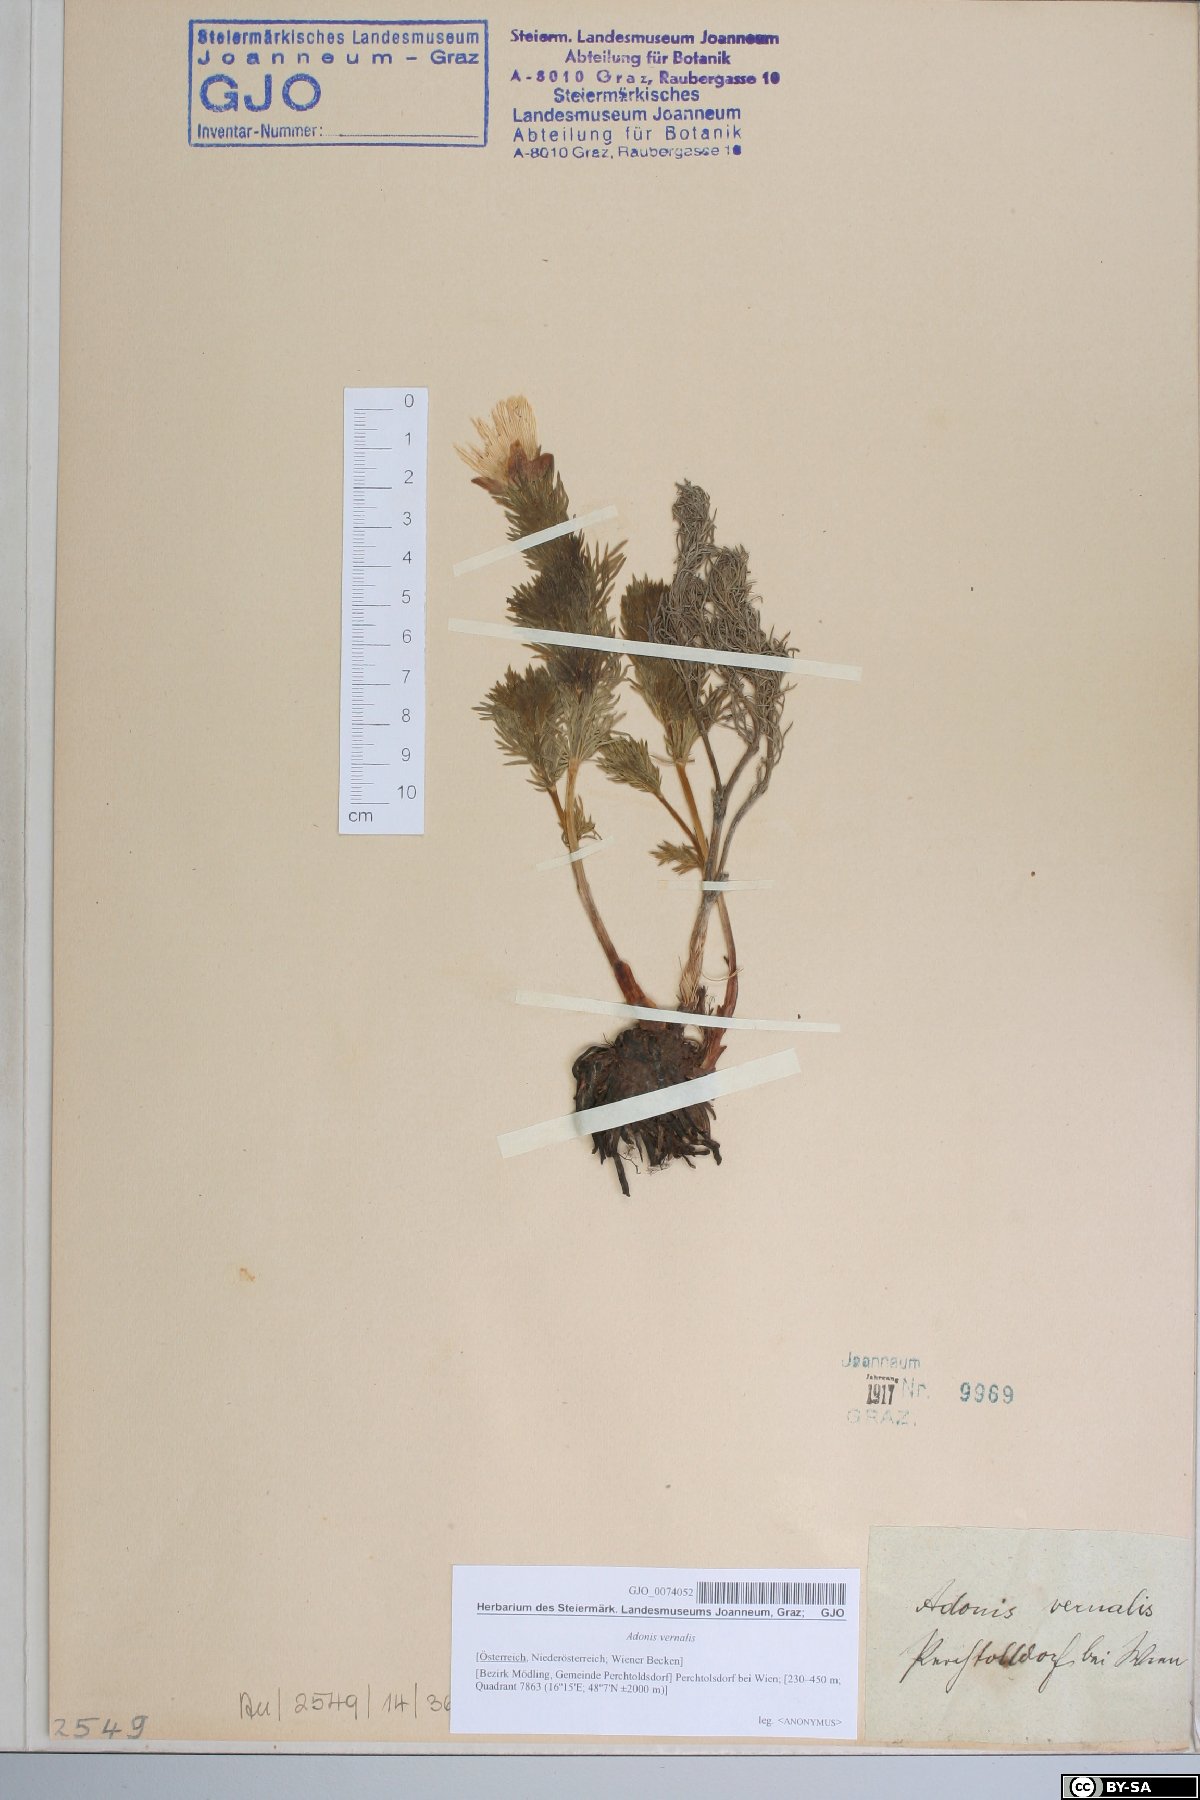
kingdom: Plantae
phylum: Tracheophyta
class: Magnoliopsida
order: Ranunculales
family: Ranunculaceae
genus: Adonis
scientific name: Adonis vernalis
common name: Yellow pheasants-eye
